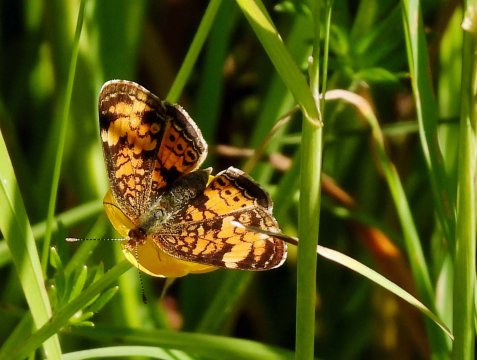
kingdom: Animalia
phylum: Arthropoda
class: Insecta
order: Lepidoptera
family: Nymphalidae
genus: Phyciodes
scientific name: Phyciodes tharos
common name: Pearl Crescent
